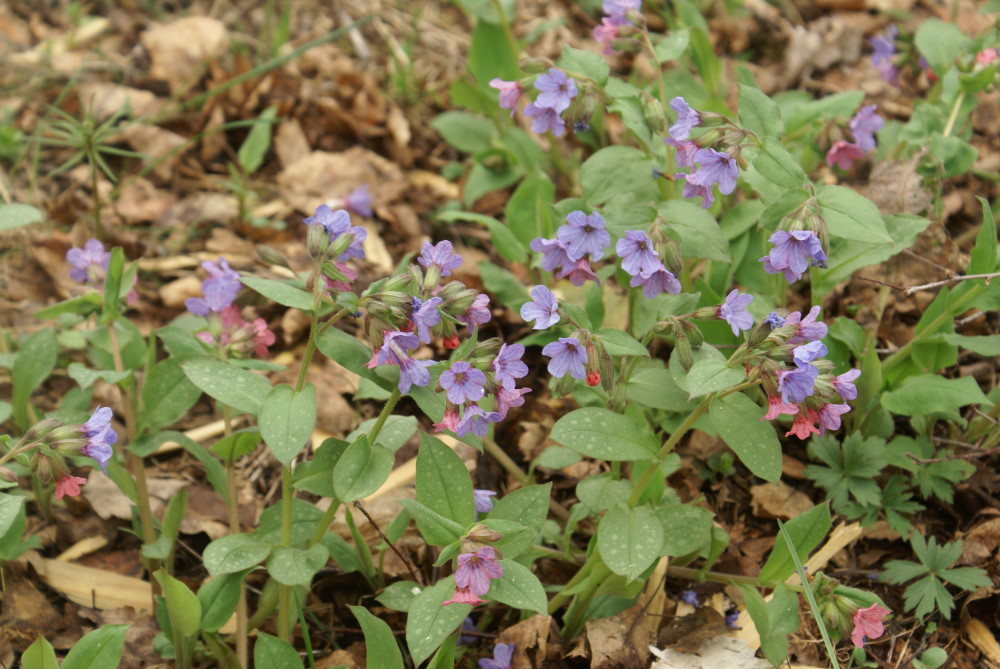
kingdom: Plantae
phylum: Tracheophyta
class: Magnoliopsida
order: Boraginales
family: Boraginaceae
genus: Pulmonaria
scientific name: Pulmonaria obscura
